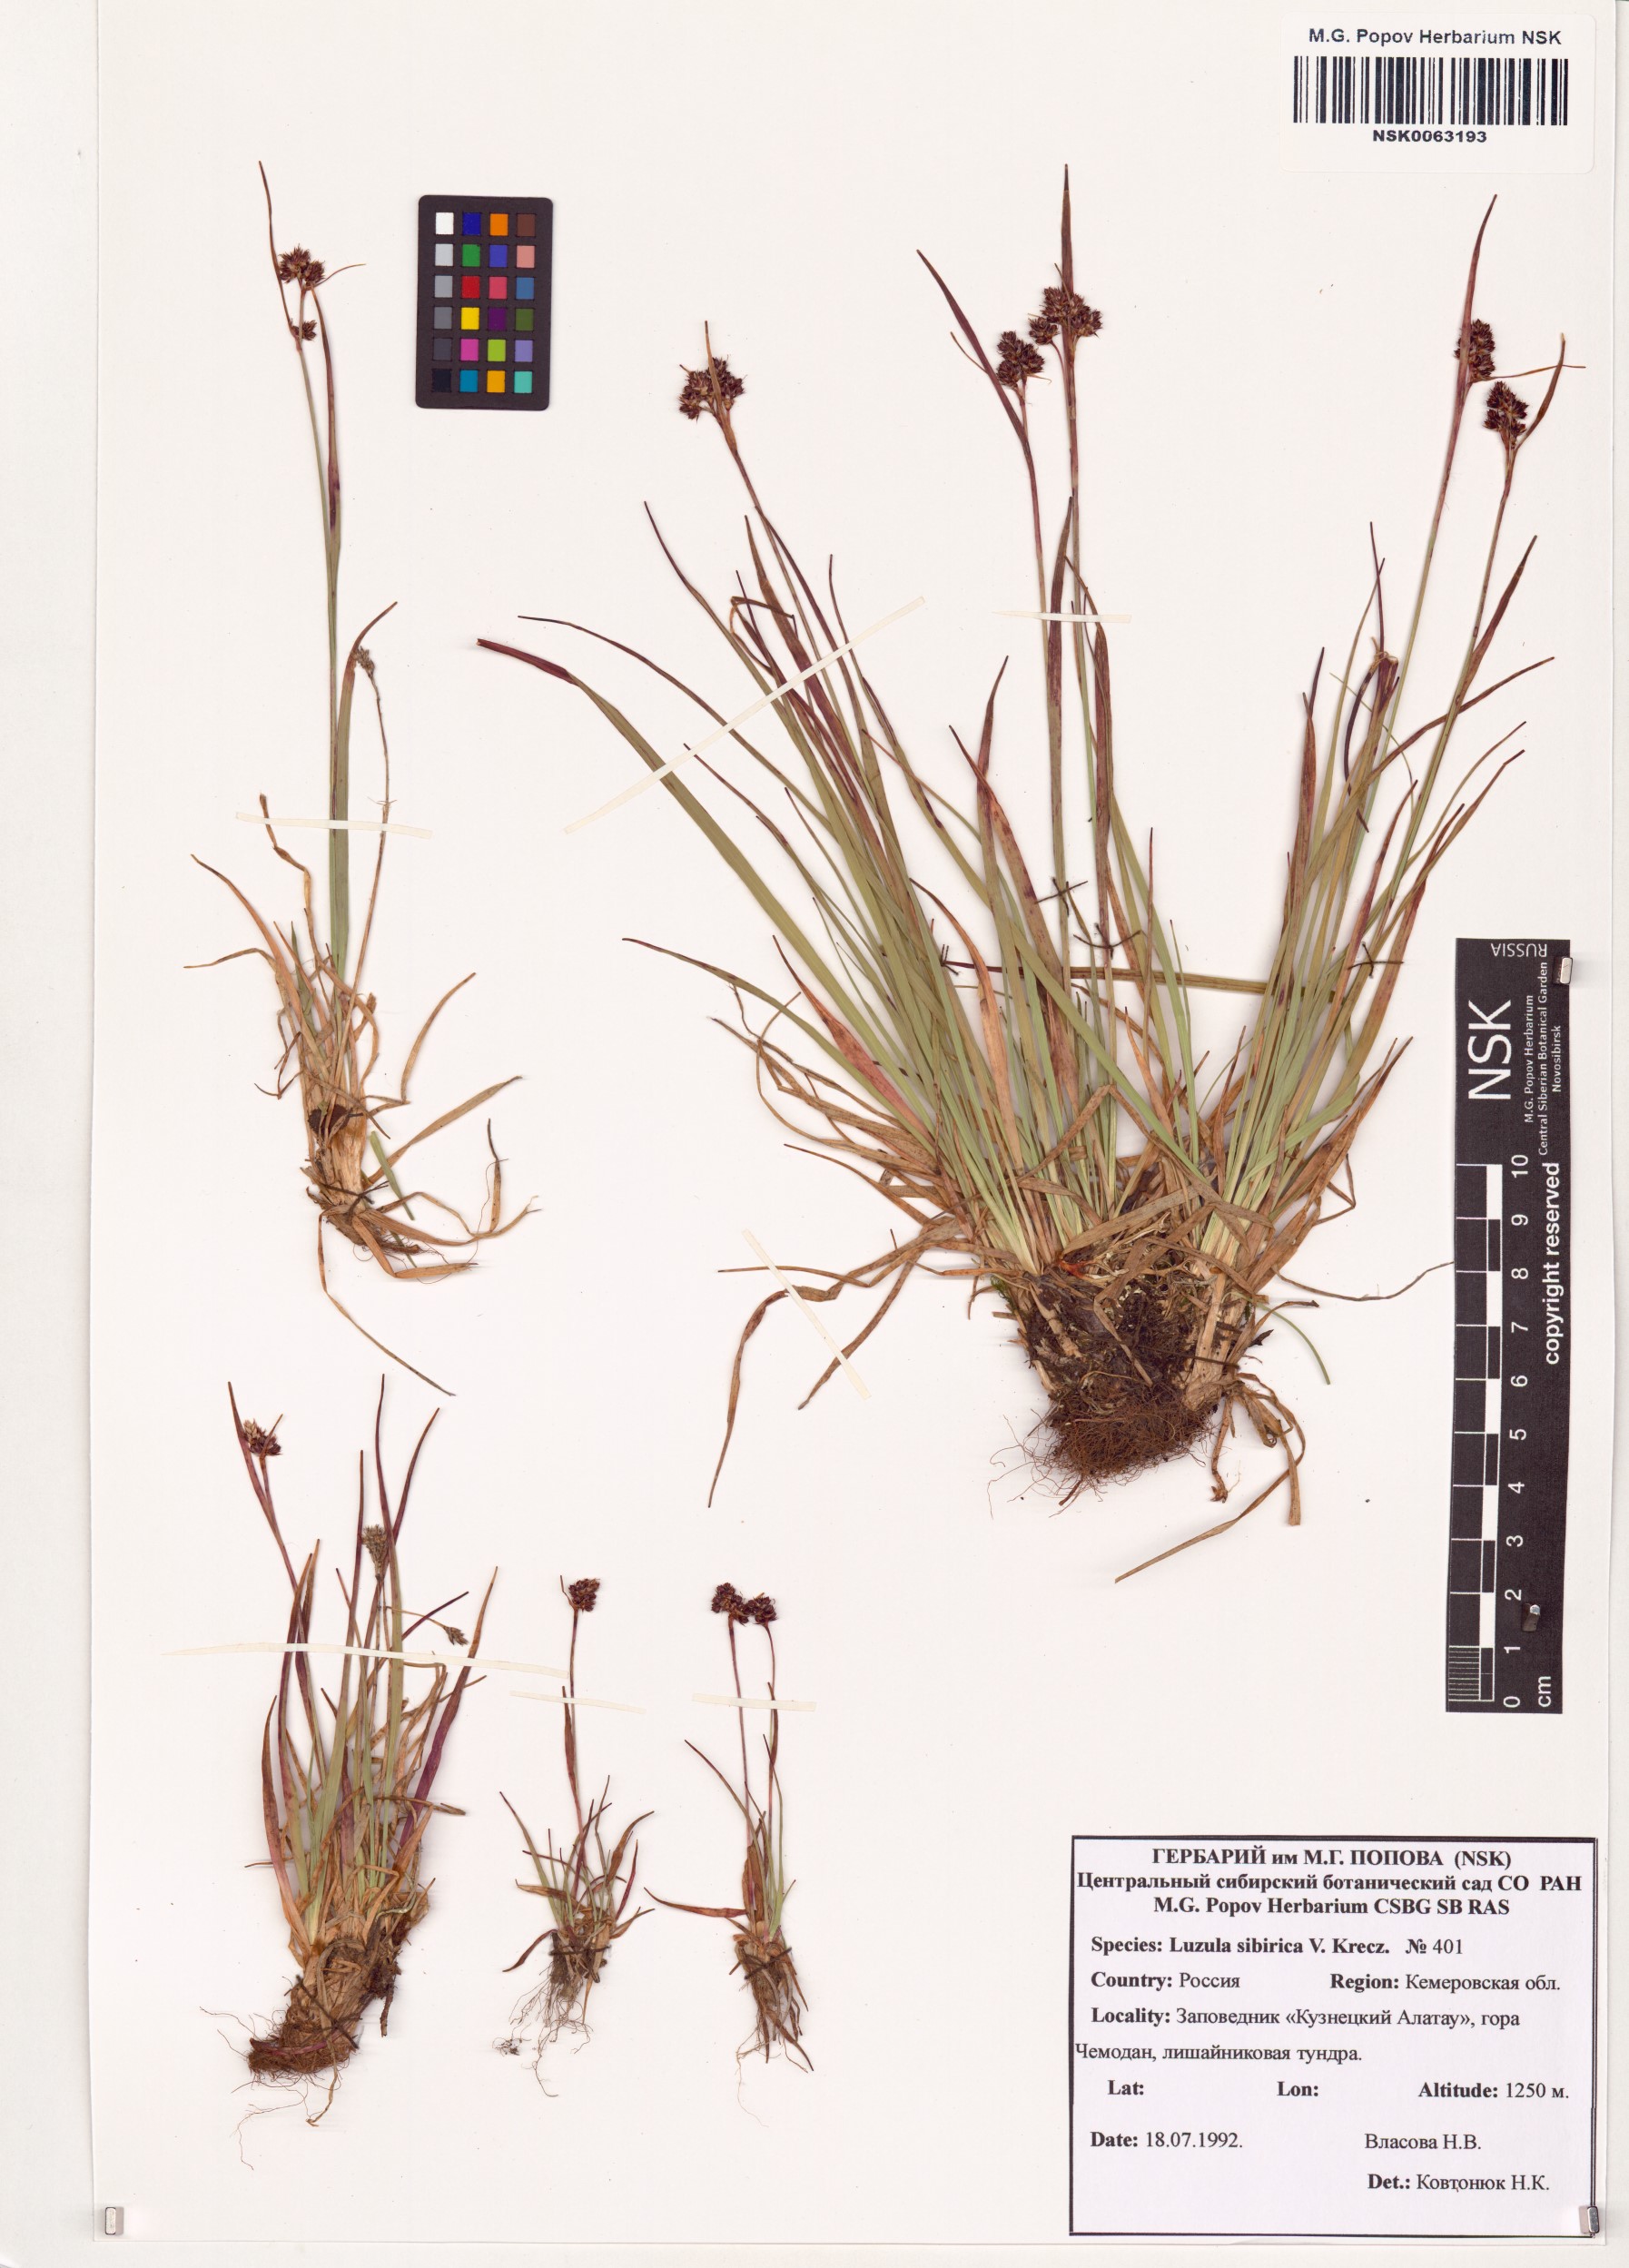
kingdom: Plantae
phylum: Tracheophyta
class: Liliopsida
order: Poales
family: Juncaceae
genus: Luzula
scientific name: Luzula multiflora
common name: Heath wood-rush
